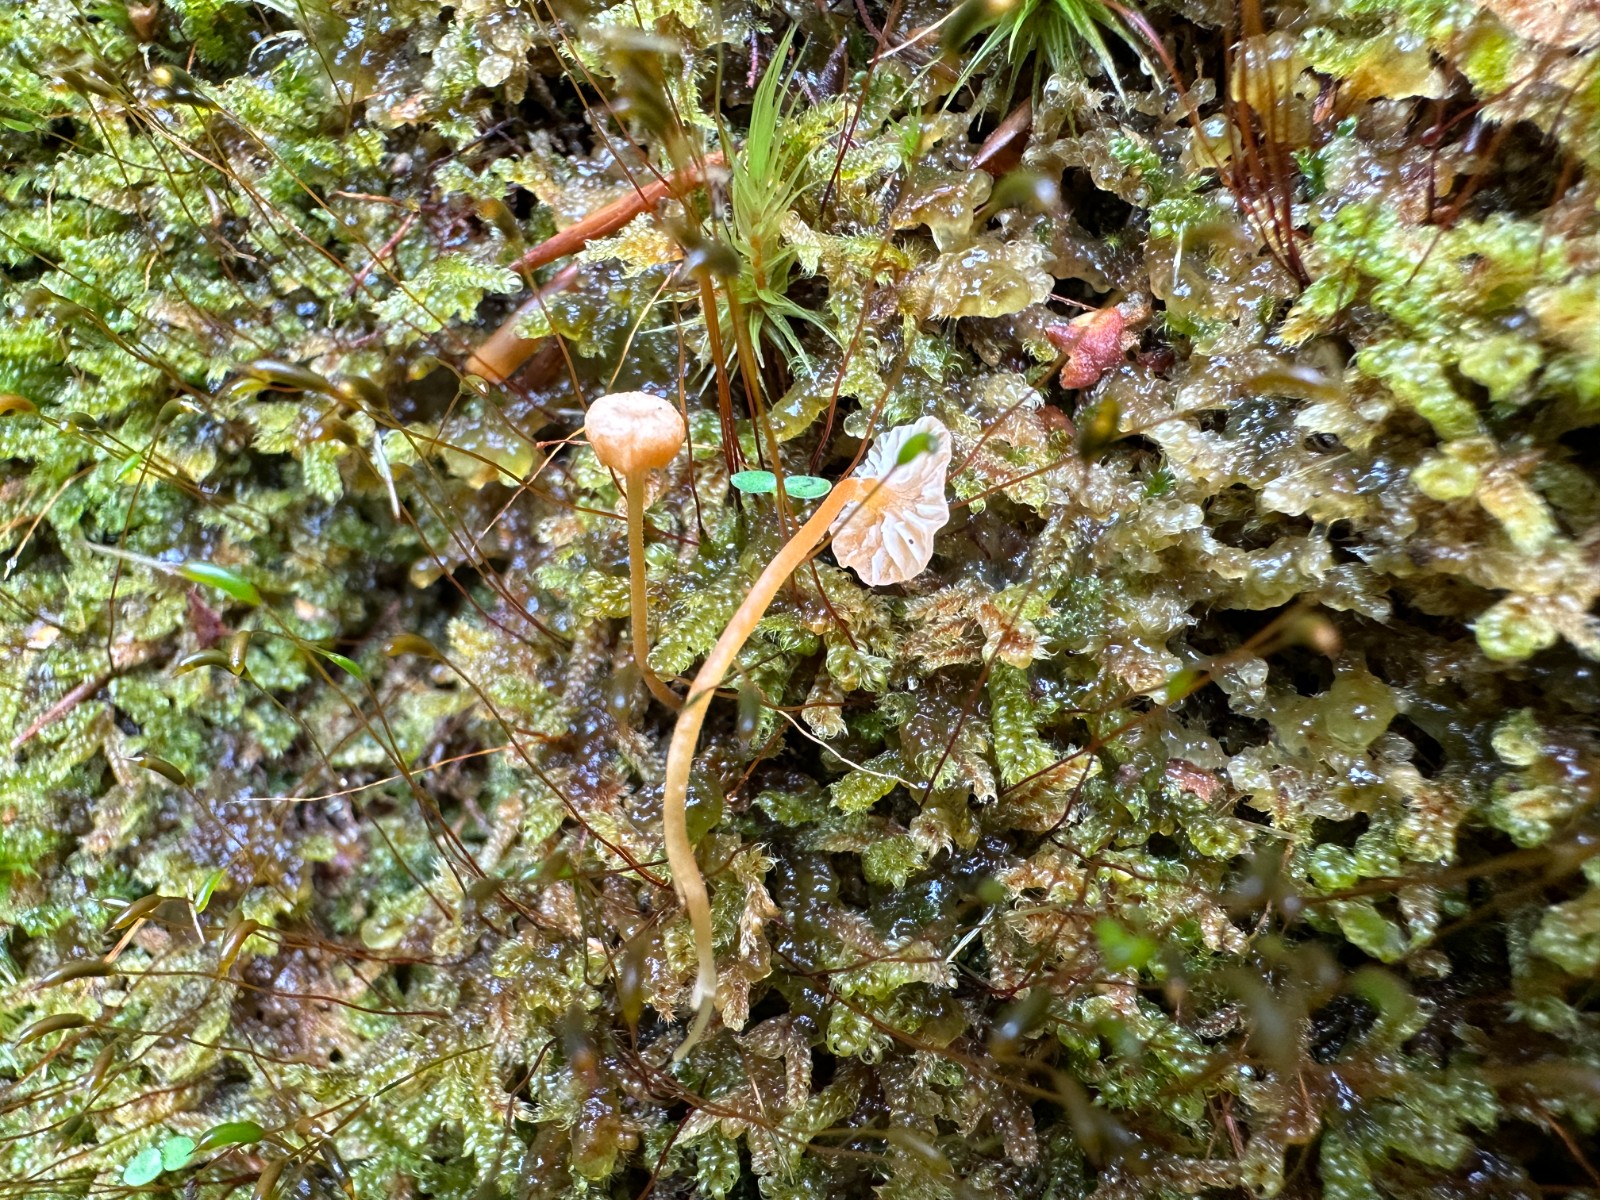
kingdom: Fungi
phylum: Basidiomycota
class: Agaricomycetes
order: Hymenochaetales
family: Rickenellaceae
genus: Rickenella
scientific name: Rickenella fibula
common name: orange mosnavlehat
